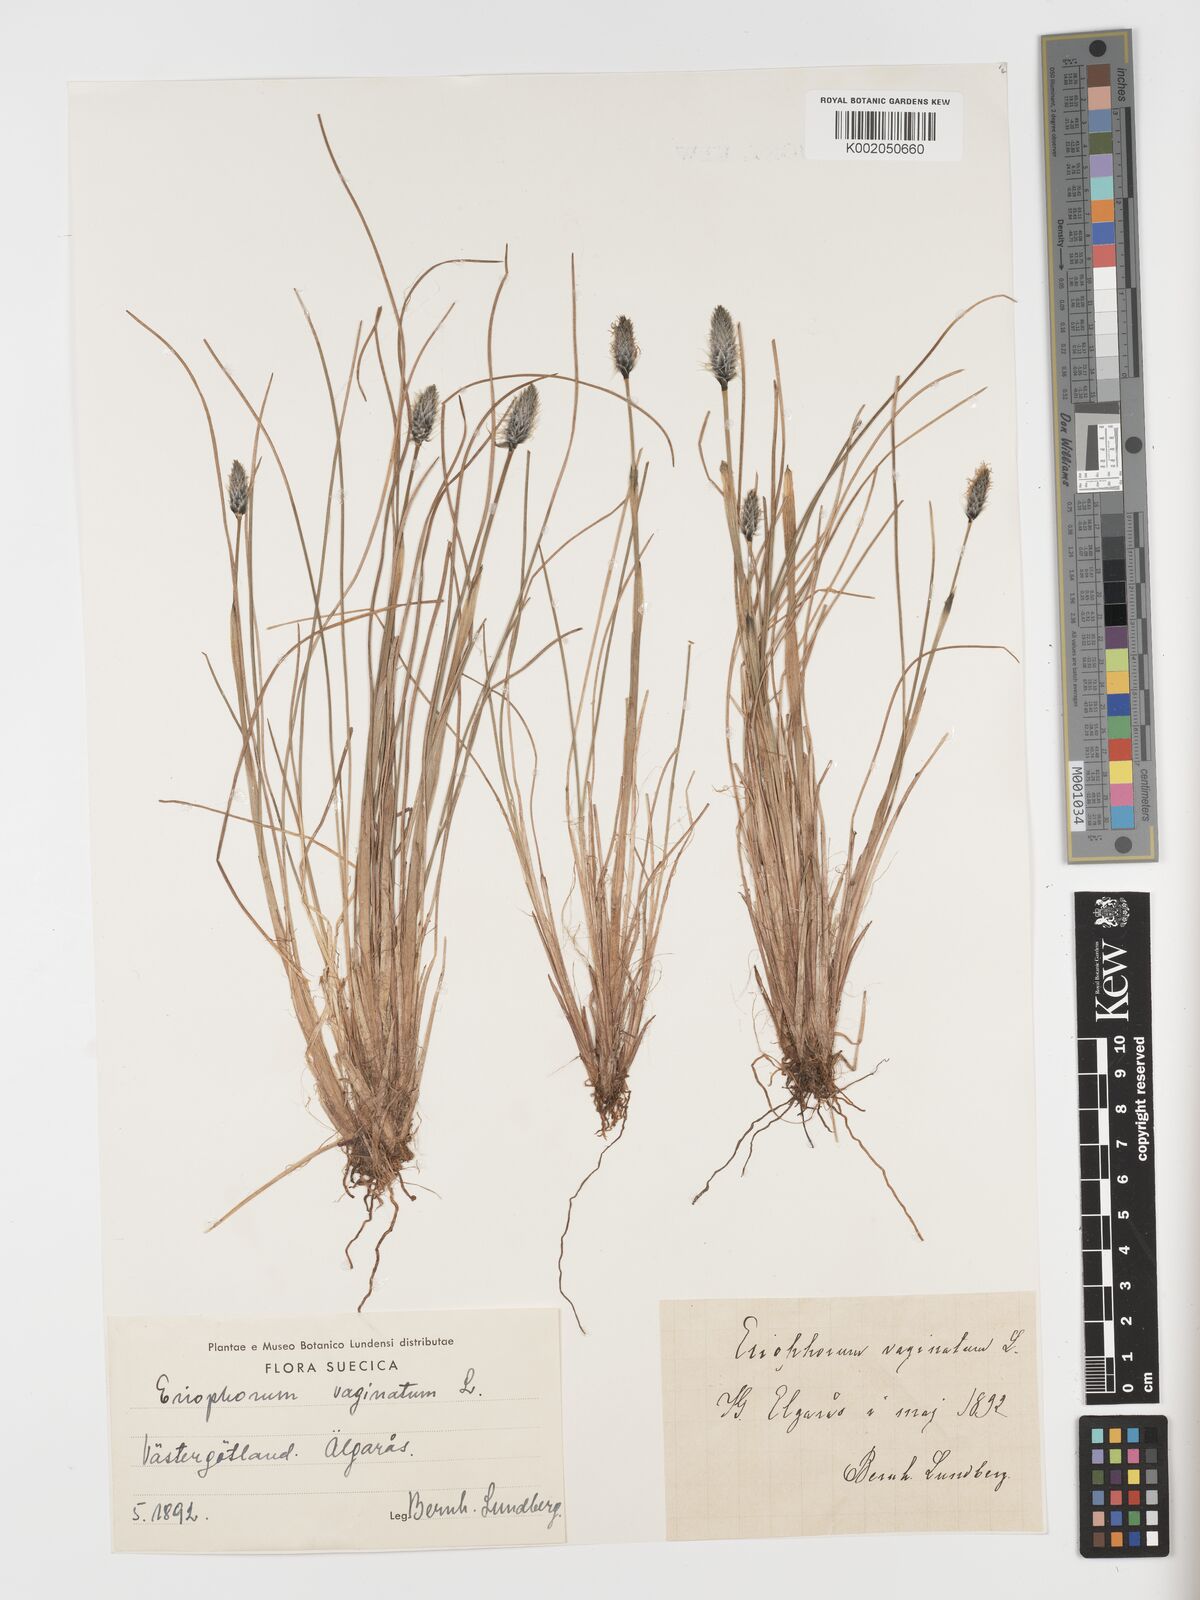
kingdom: Plantae
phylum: Tracheophyta
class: Liliopsida
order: Poales
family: Cyperaceae
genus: Eriophorum
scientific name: Eriophorum vaginatum
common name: Hare's-tail cottongrass
